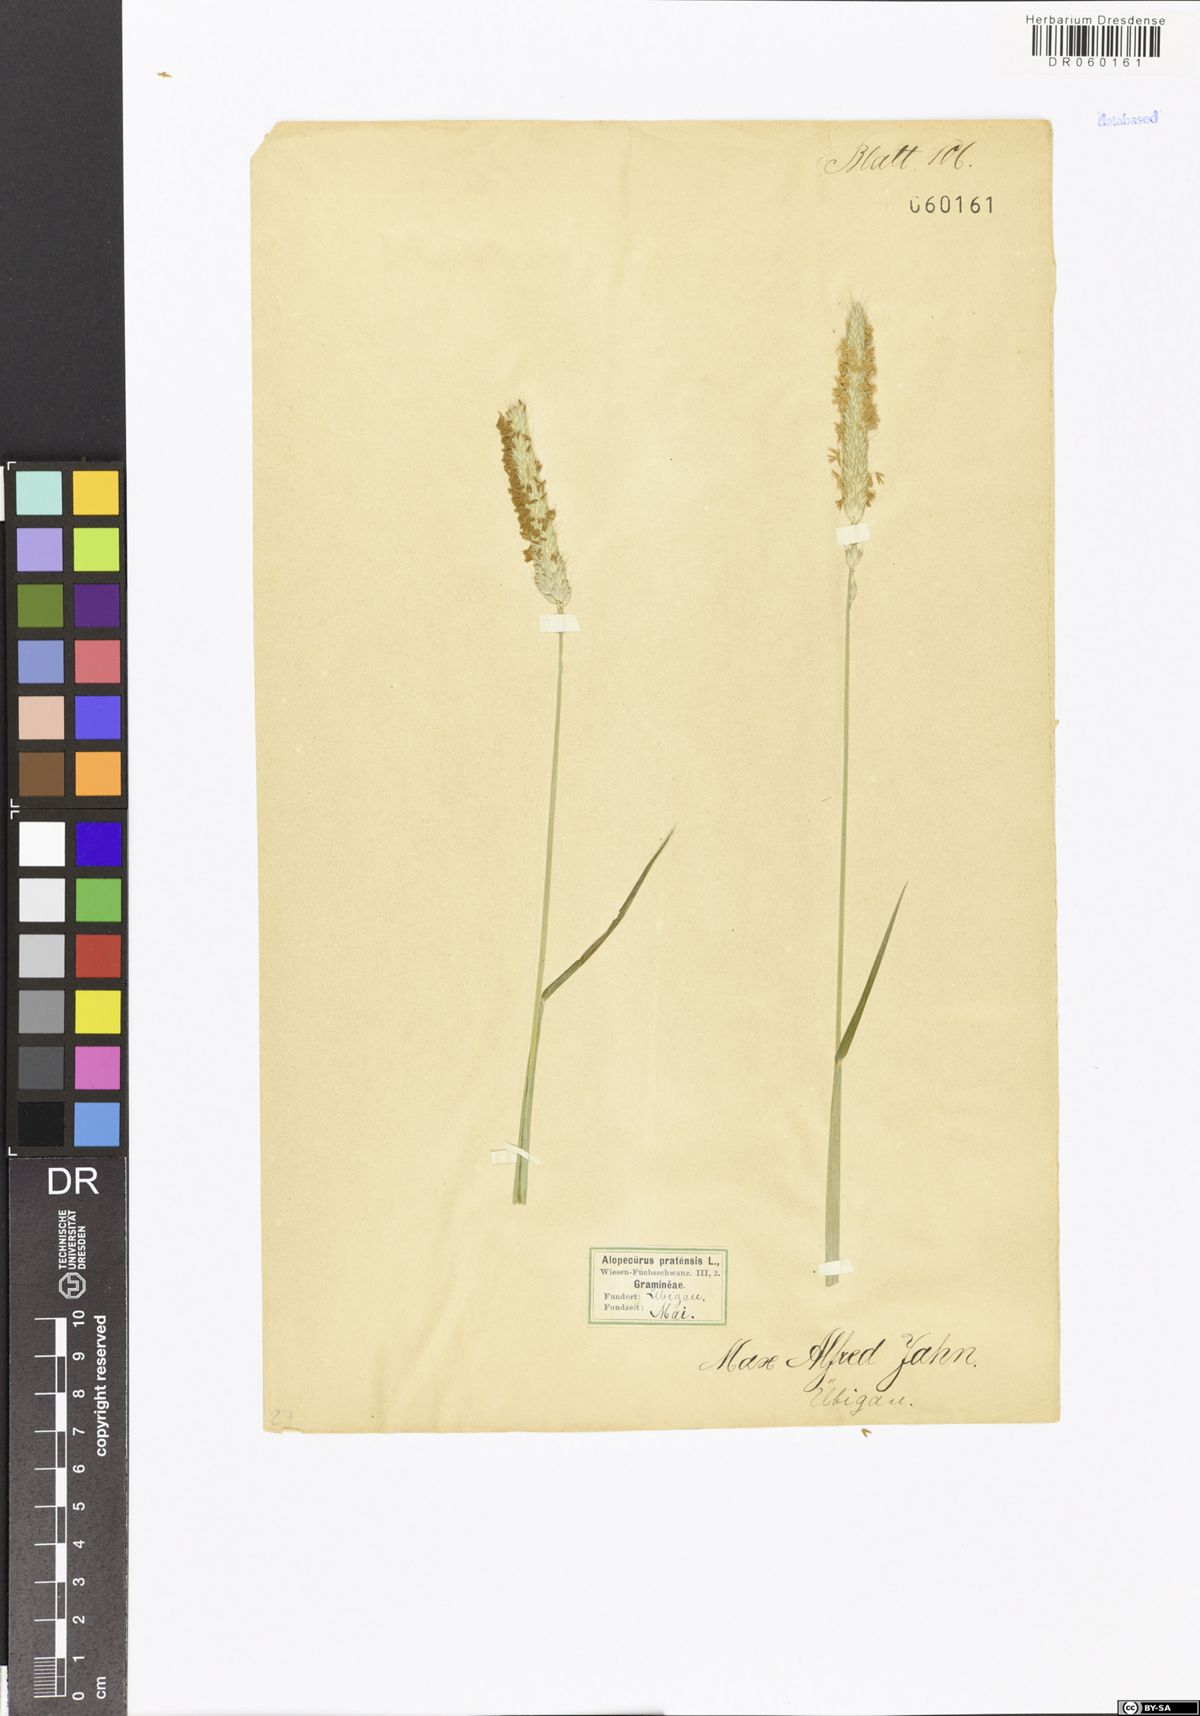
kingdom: Plantae
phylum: Tracheophyta
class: Liliopsida
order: Poales
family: Poaceae
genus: Alopecurus
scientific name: Alopecurus pratensis
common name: Meadow foxtail
